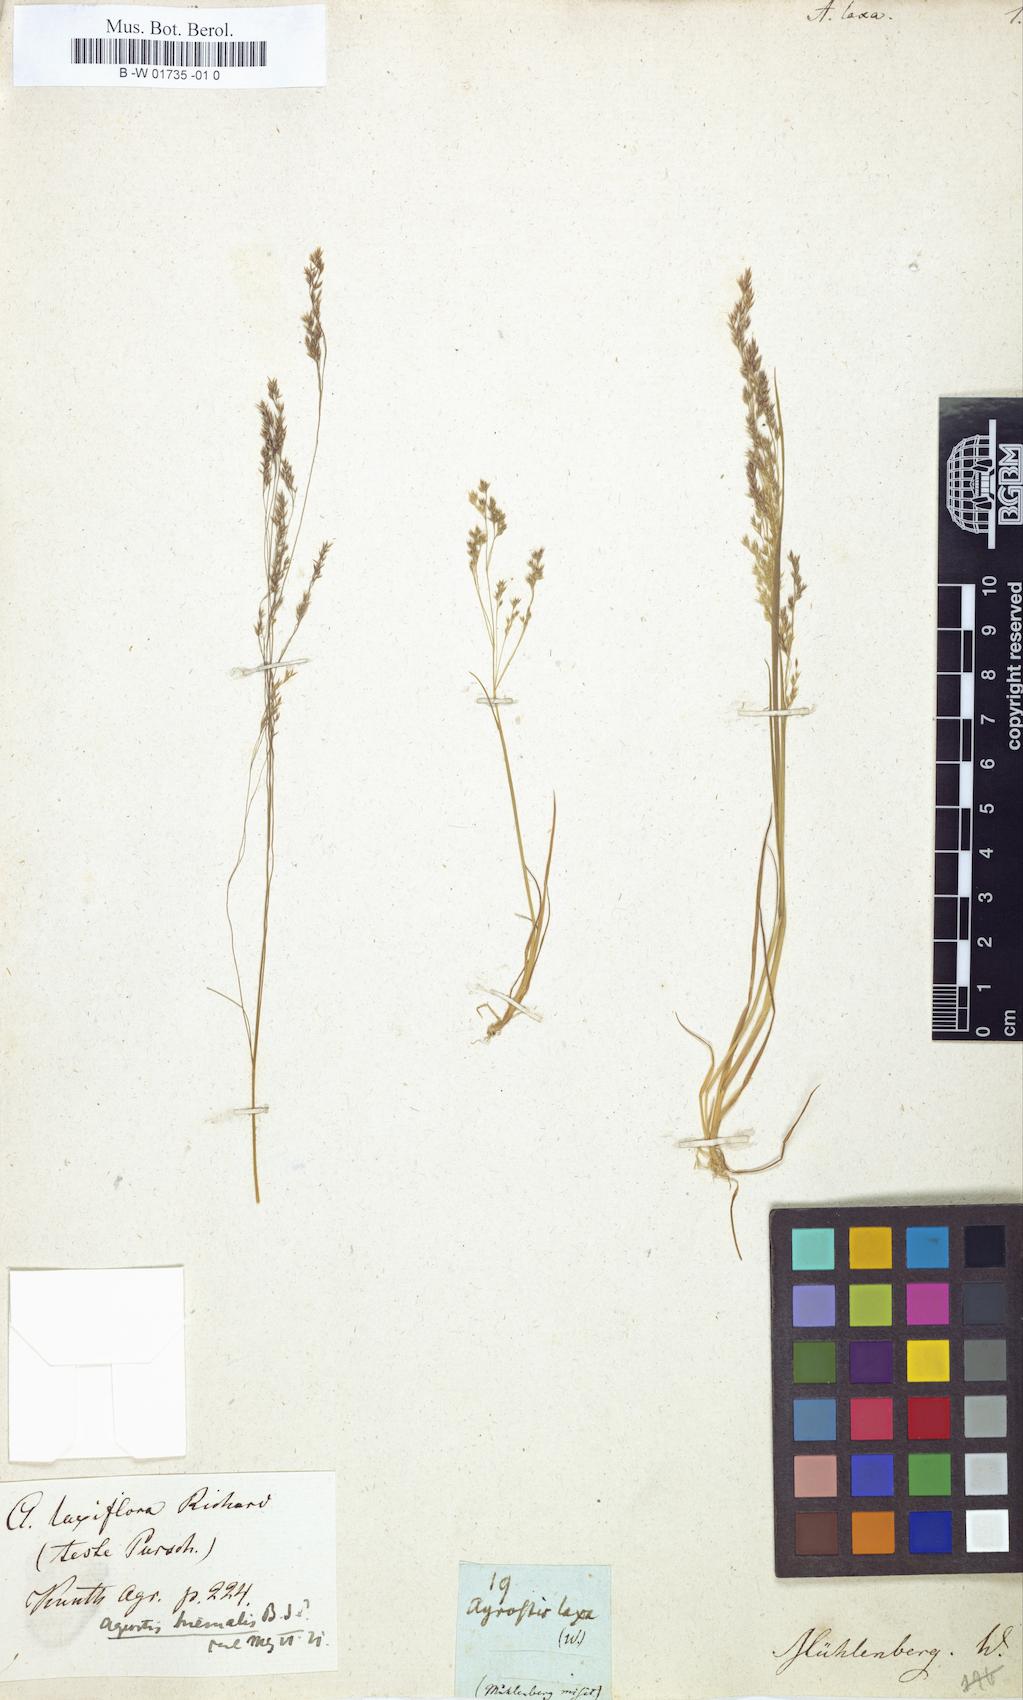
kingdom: Plantae
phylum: Tracheophyta
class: Liliopsida
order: Poales
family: Poaceae
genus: Agrostis
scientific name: Agrostis capillaris
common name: Colonial bentgrass
